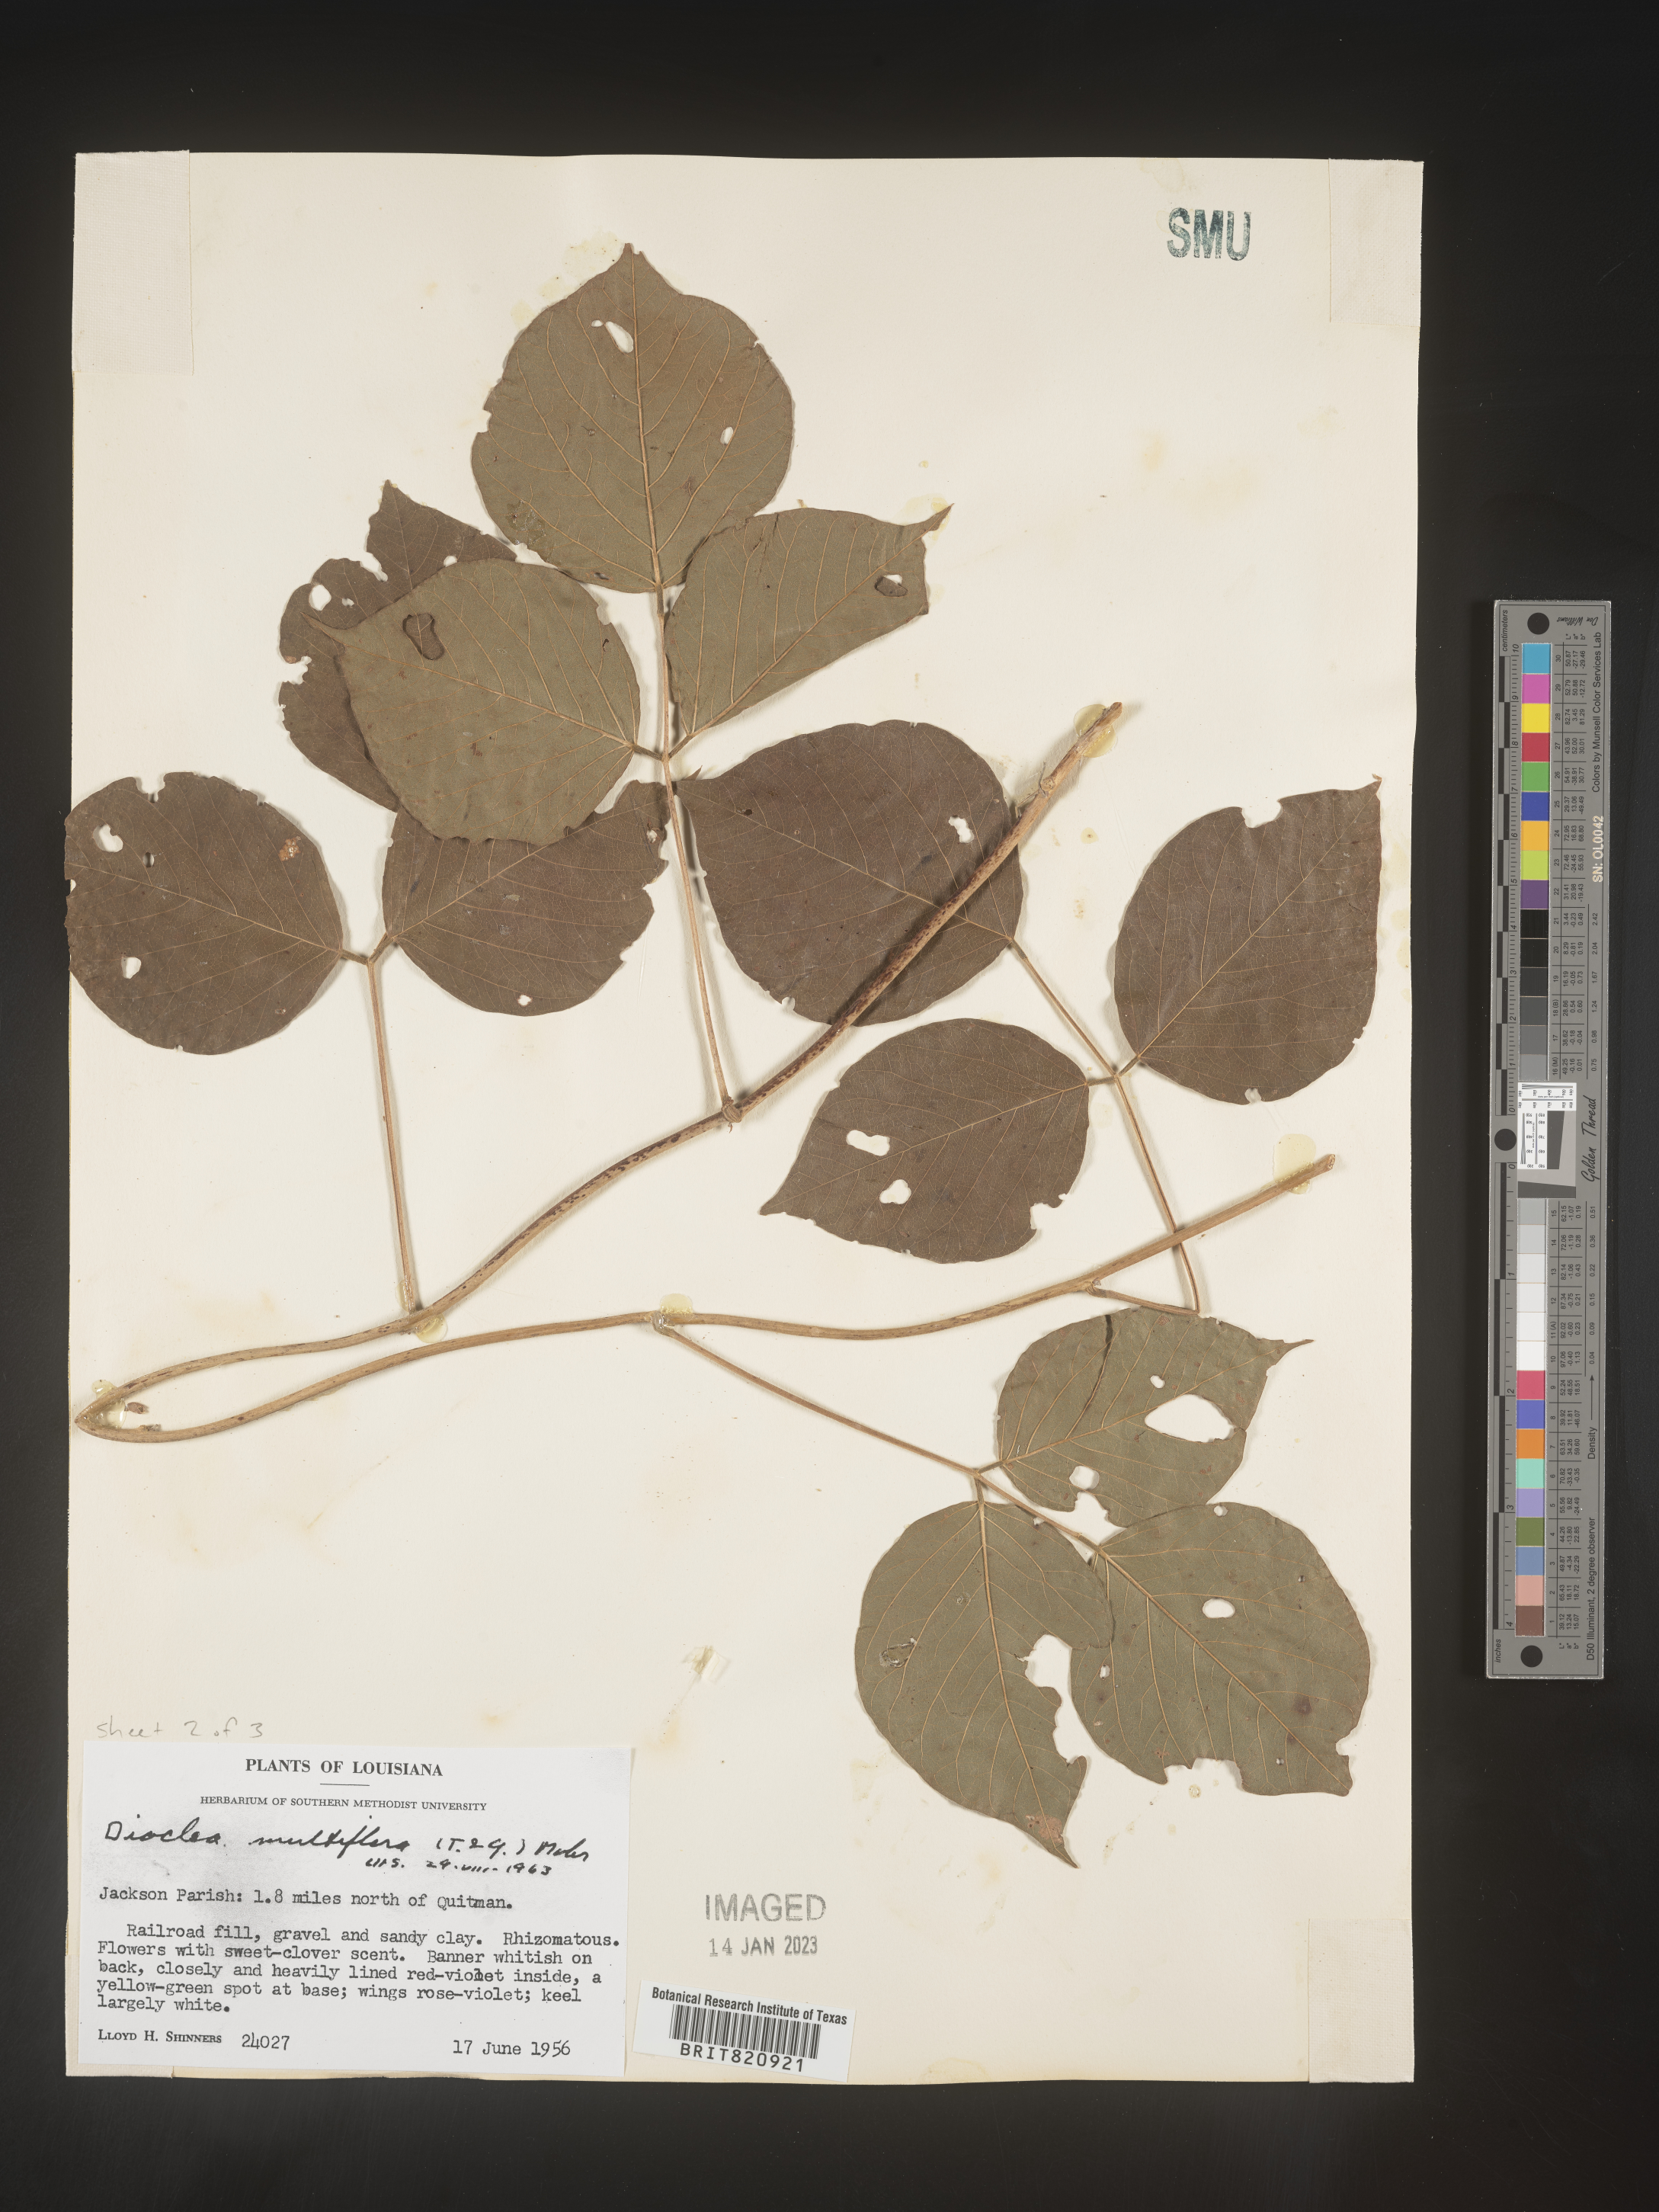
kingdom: Plantae
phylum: Tracheophyta
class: Magnoliopsida
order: Fabales
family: Fabaceae
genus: Dioclea
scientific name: Dioclea
